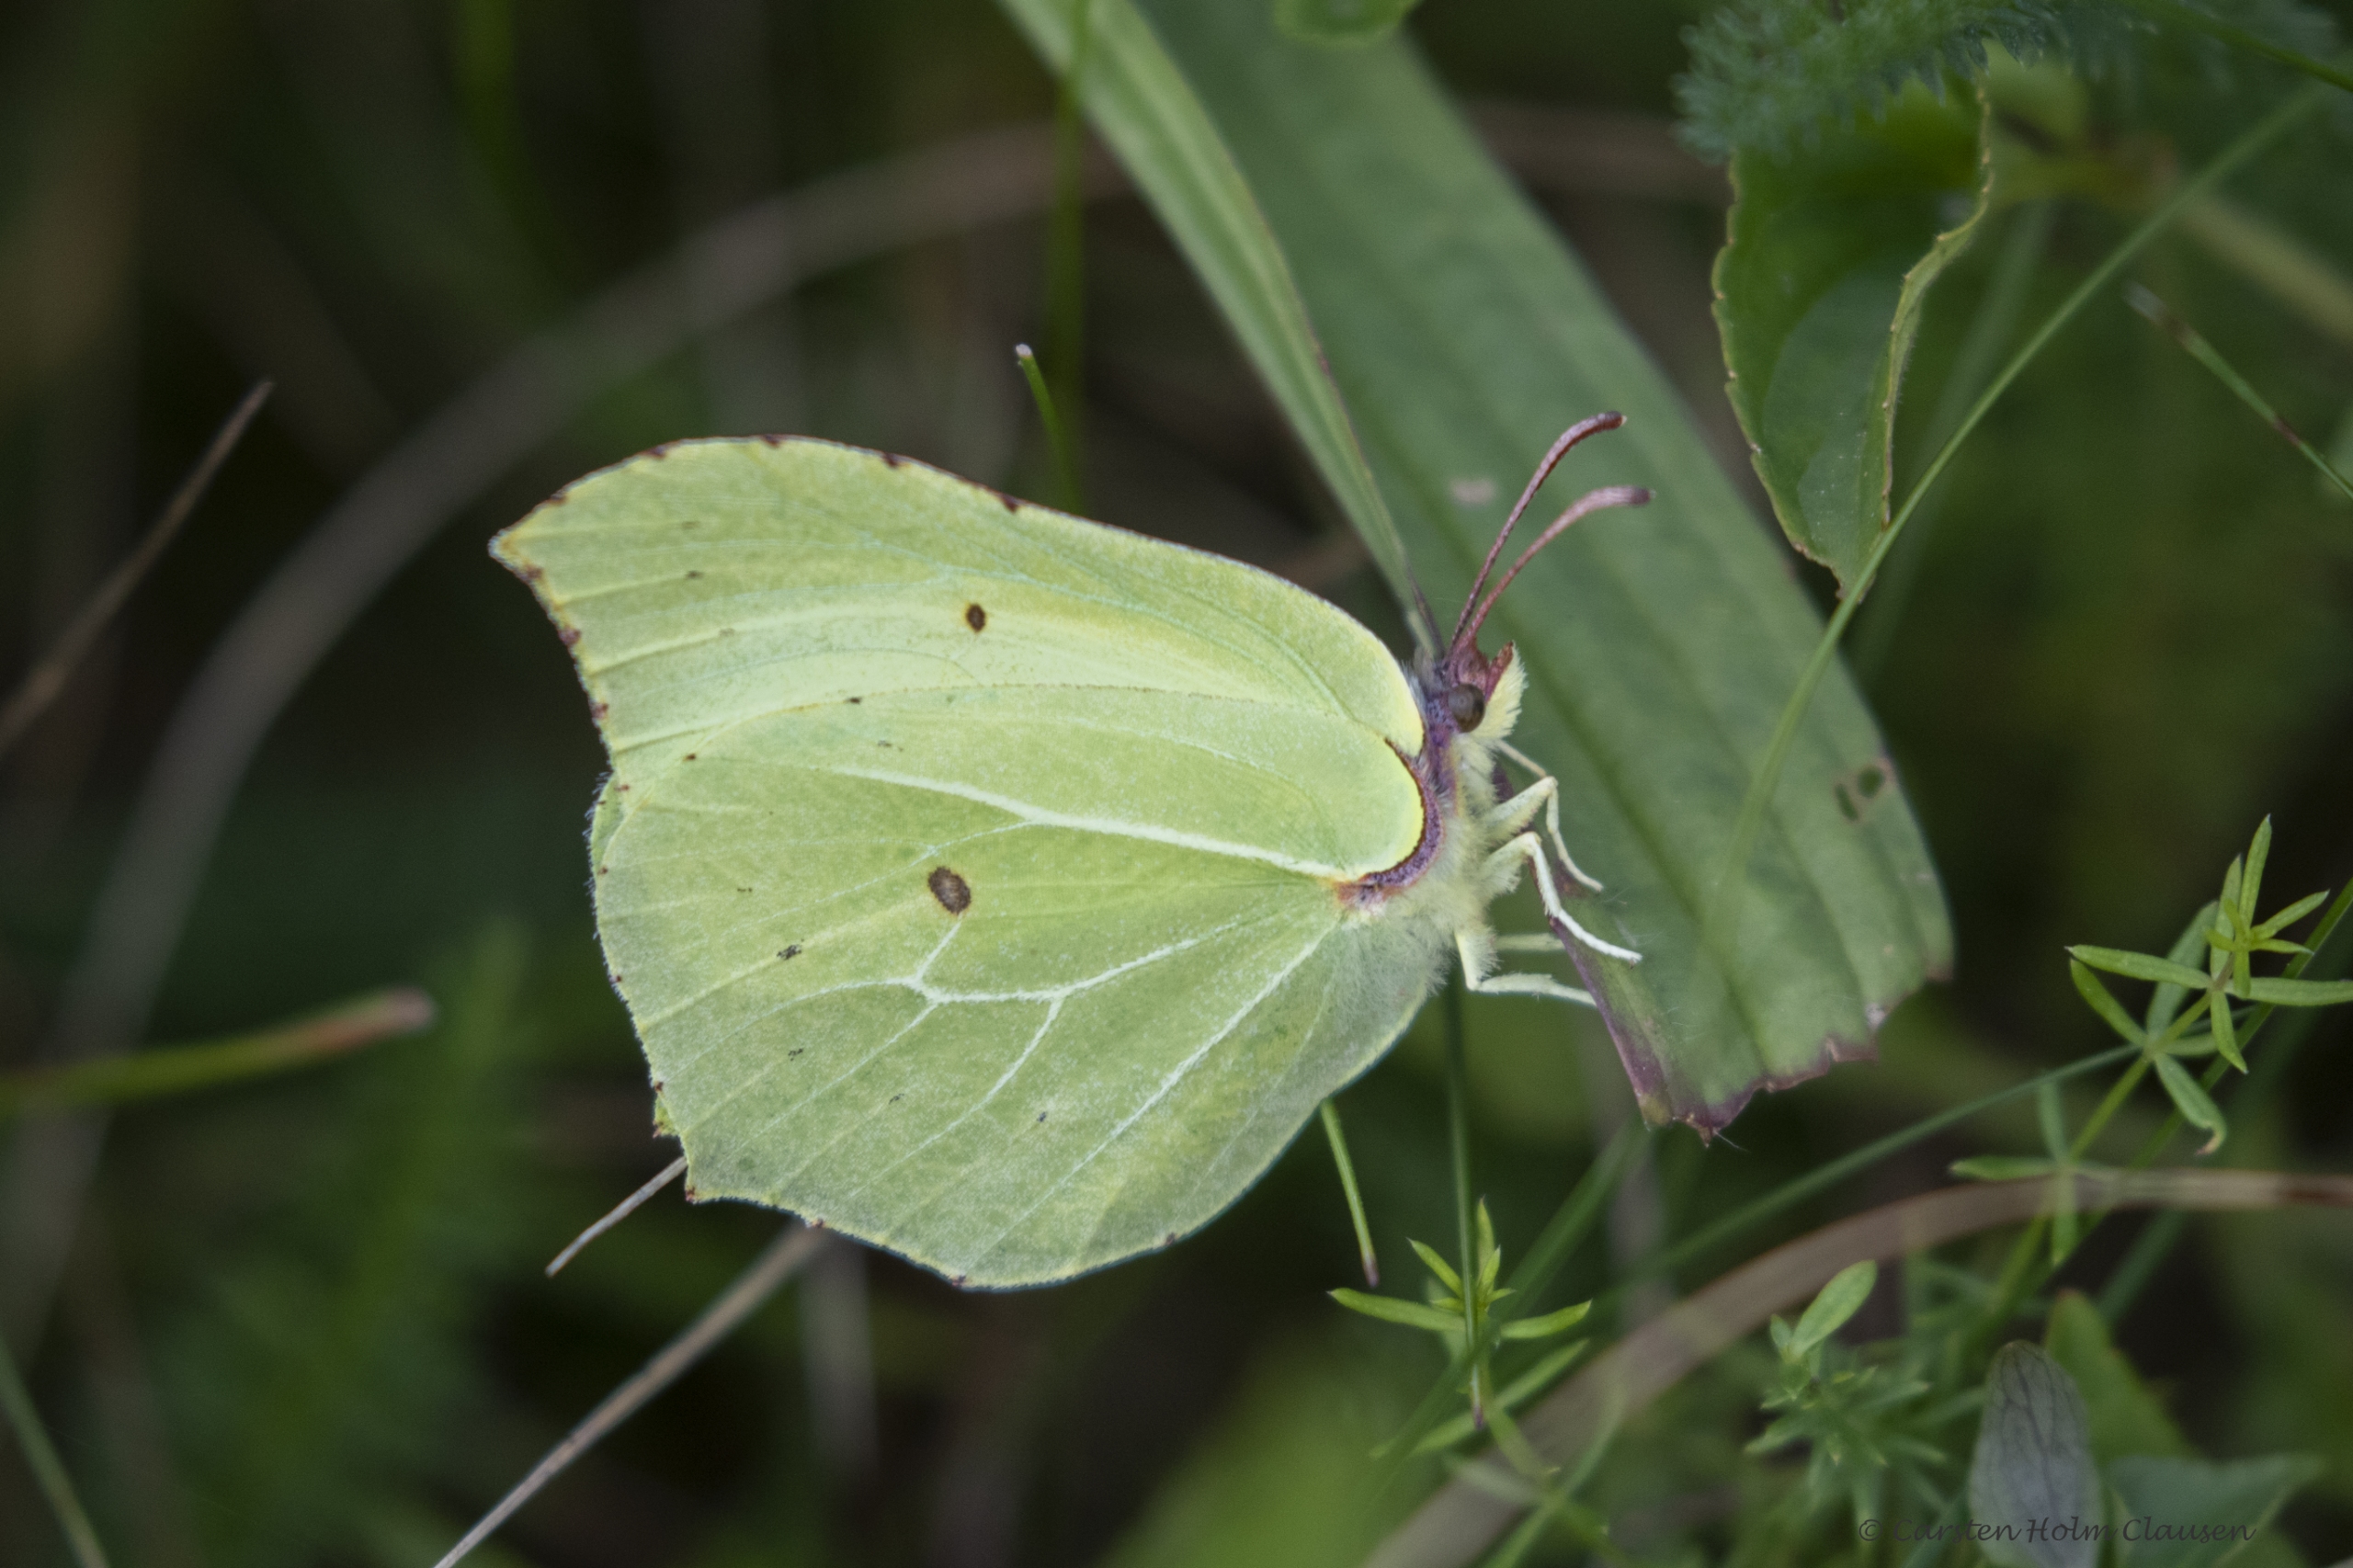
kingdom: Animalia
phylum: Arthropoda
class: Insecta
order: Lepidoptera
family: Pieridae
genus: Gonepteryx
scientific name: Gonepteryx rhamni
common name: Citronsommerfugl
